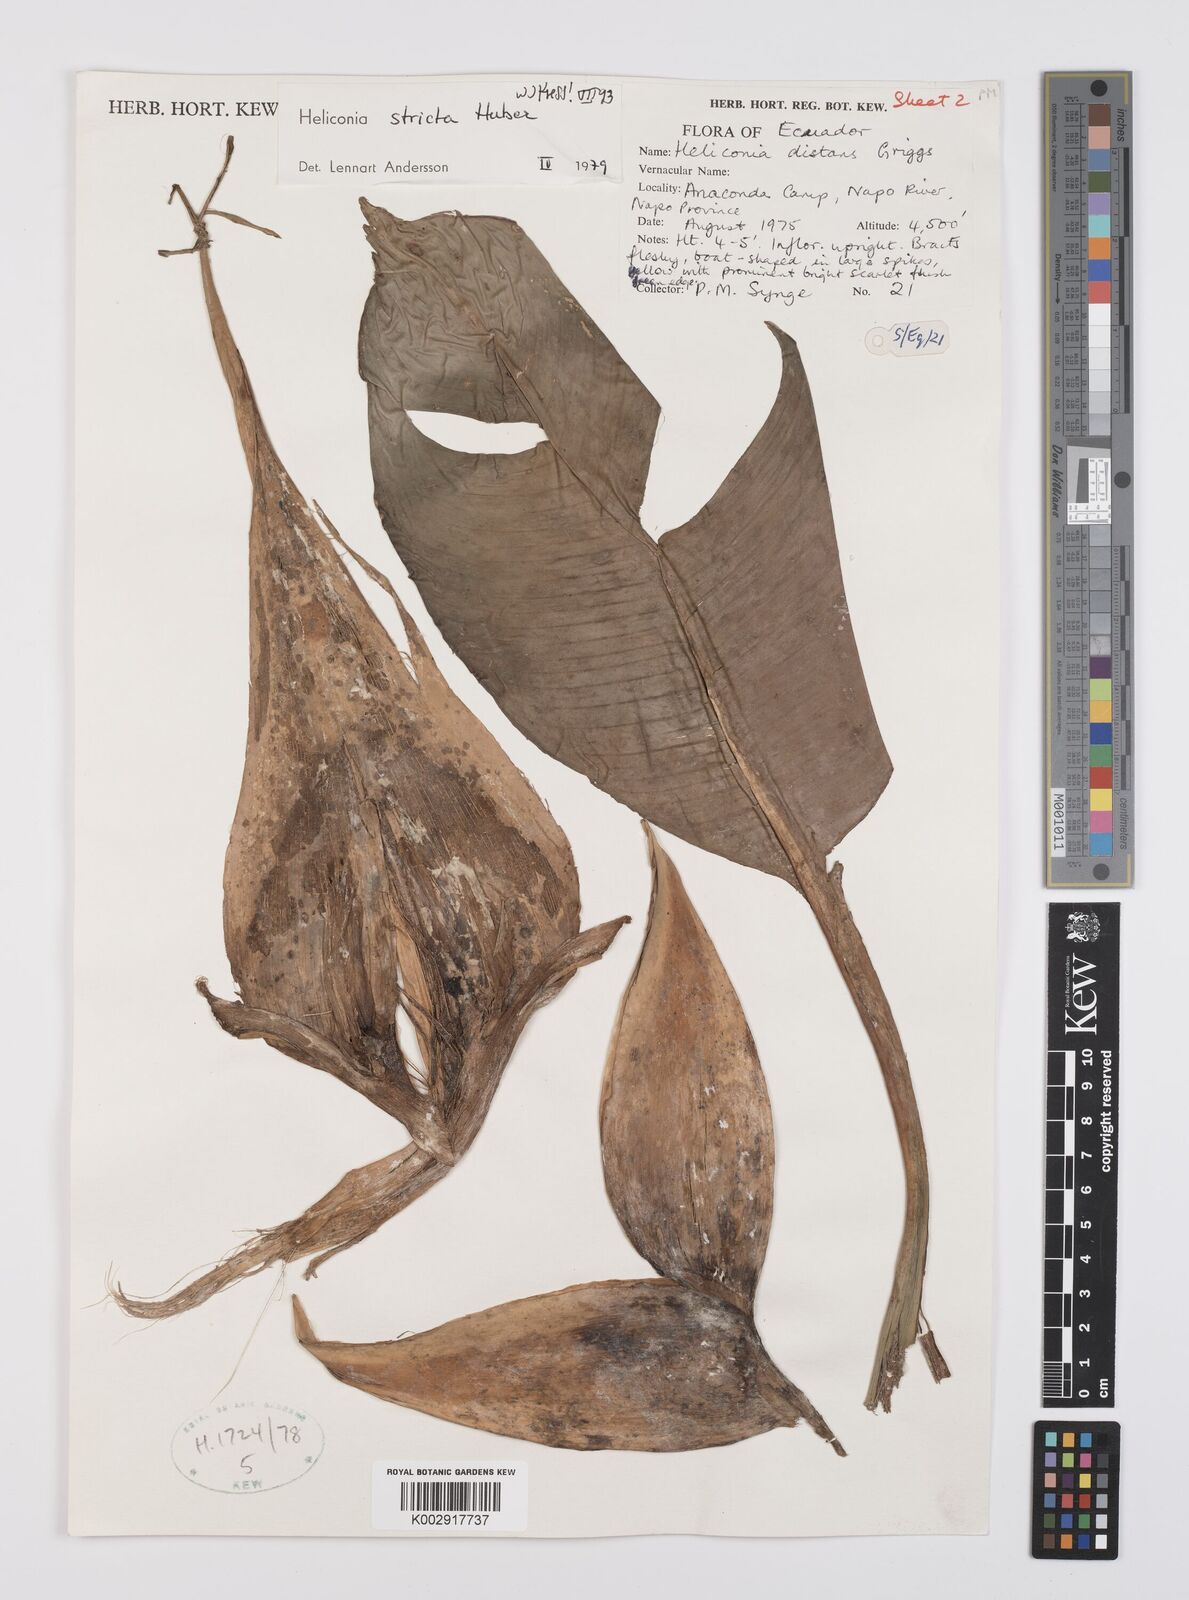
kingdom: Plantae
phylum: Tracheophyta
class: Liliopsida
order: Zingiberales
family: Heliconiaceae
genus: Heliconia
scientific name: Heliconia stricta
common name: Small lobster claw
